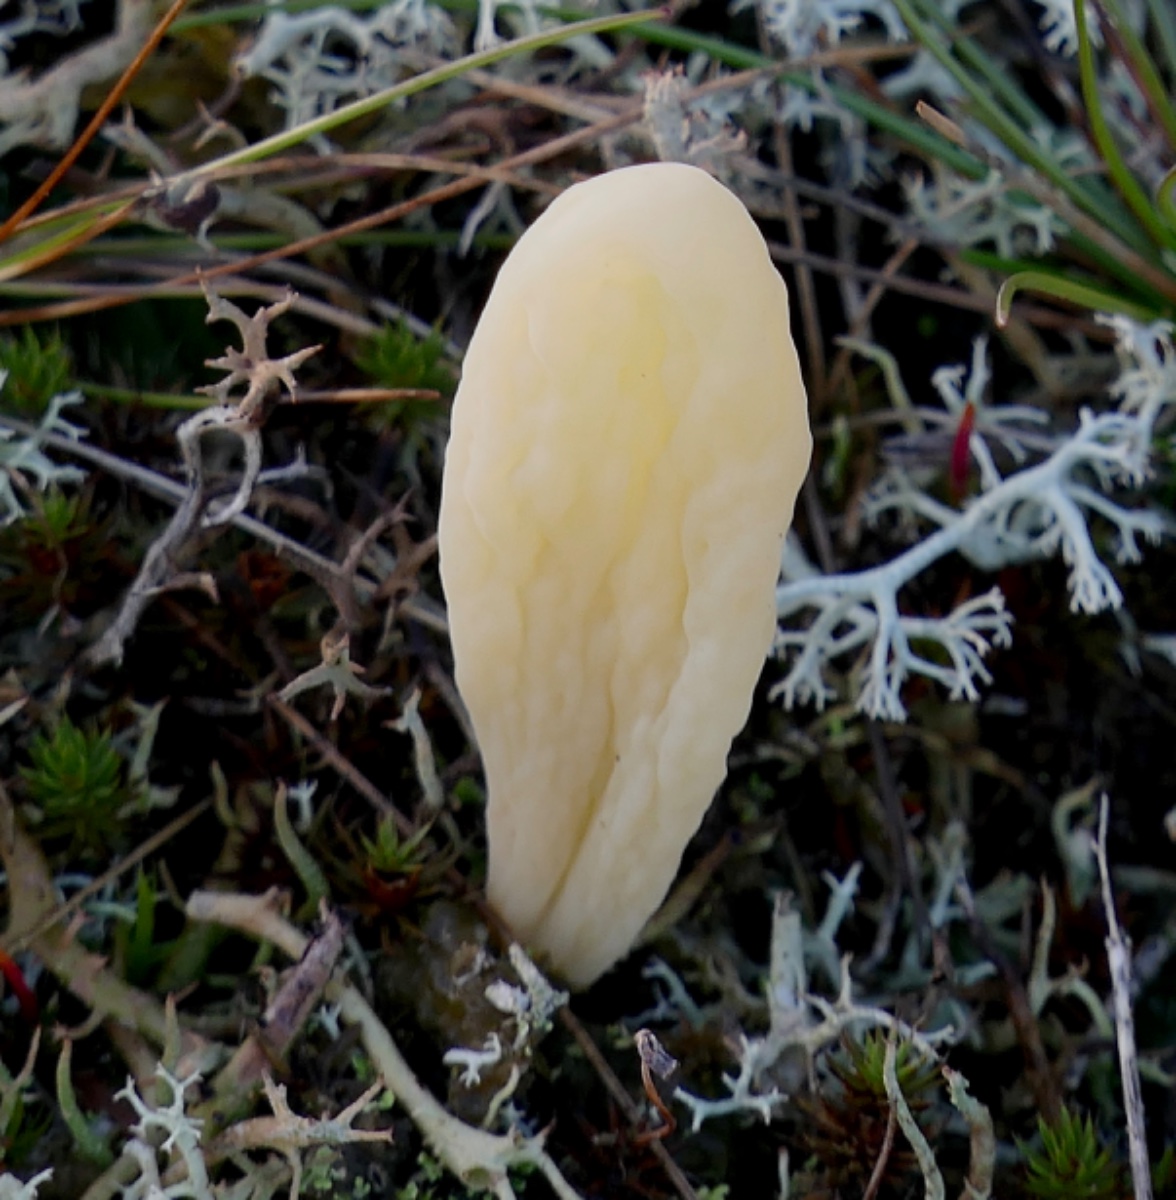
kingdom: Fungi
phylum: Basidiomycota
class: Agaricomycetes
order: Agaricales
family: Clavariaceae
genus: Clavaria
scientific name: Clavaria argillacea
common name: lerfarvet køllesvamp
